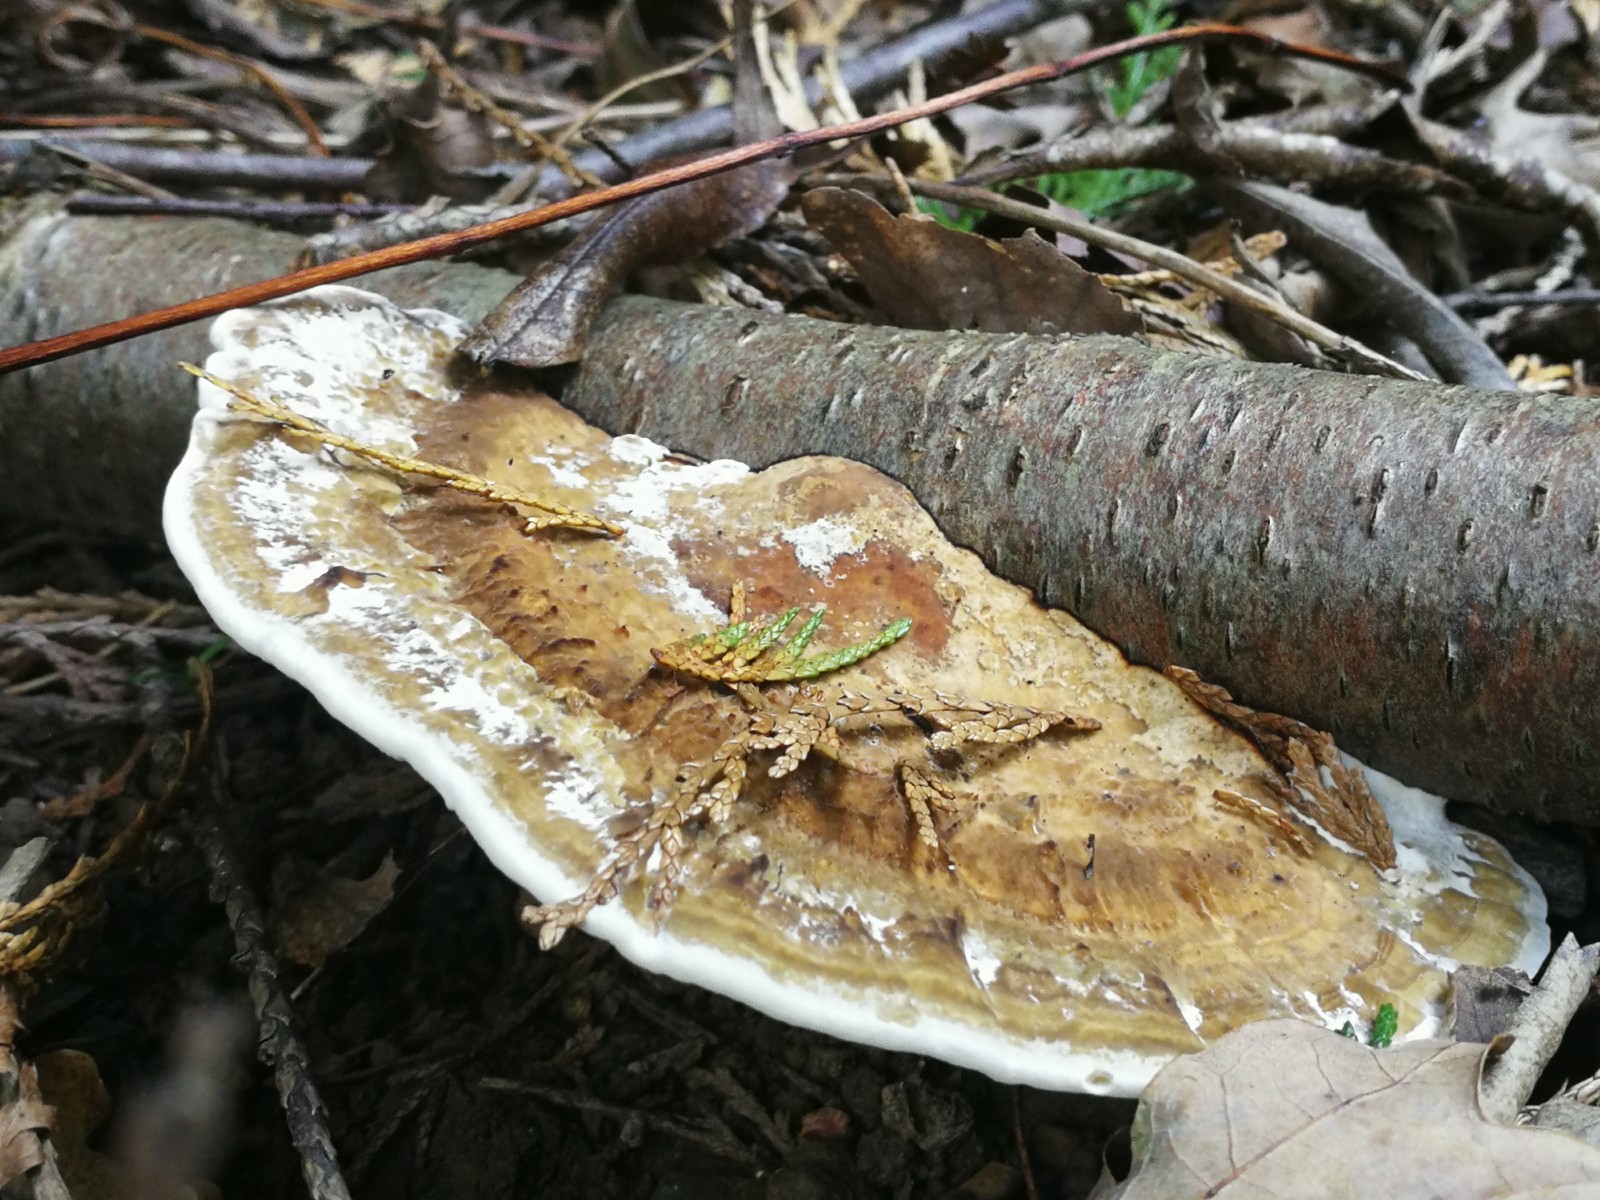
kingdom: Fungi
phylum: Basidiomycota
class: Agaricomycetes
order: Polyporales
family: Polyporaceae
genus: Daedaleopsis
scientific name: Daedaleopsis confragosa
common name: rødmende læderporesvamp
